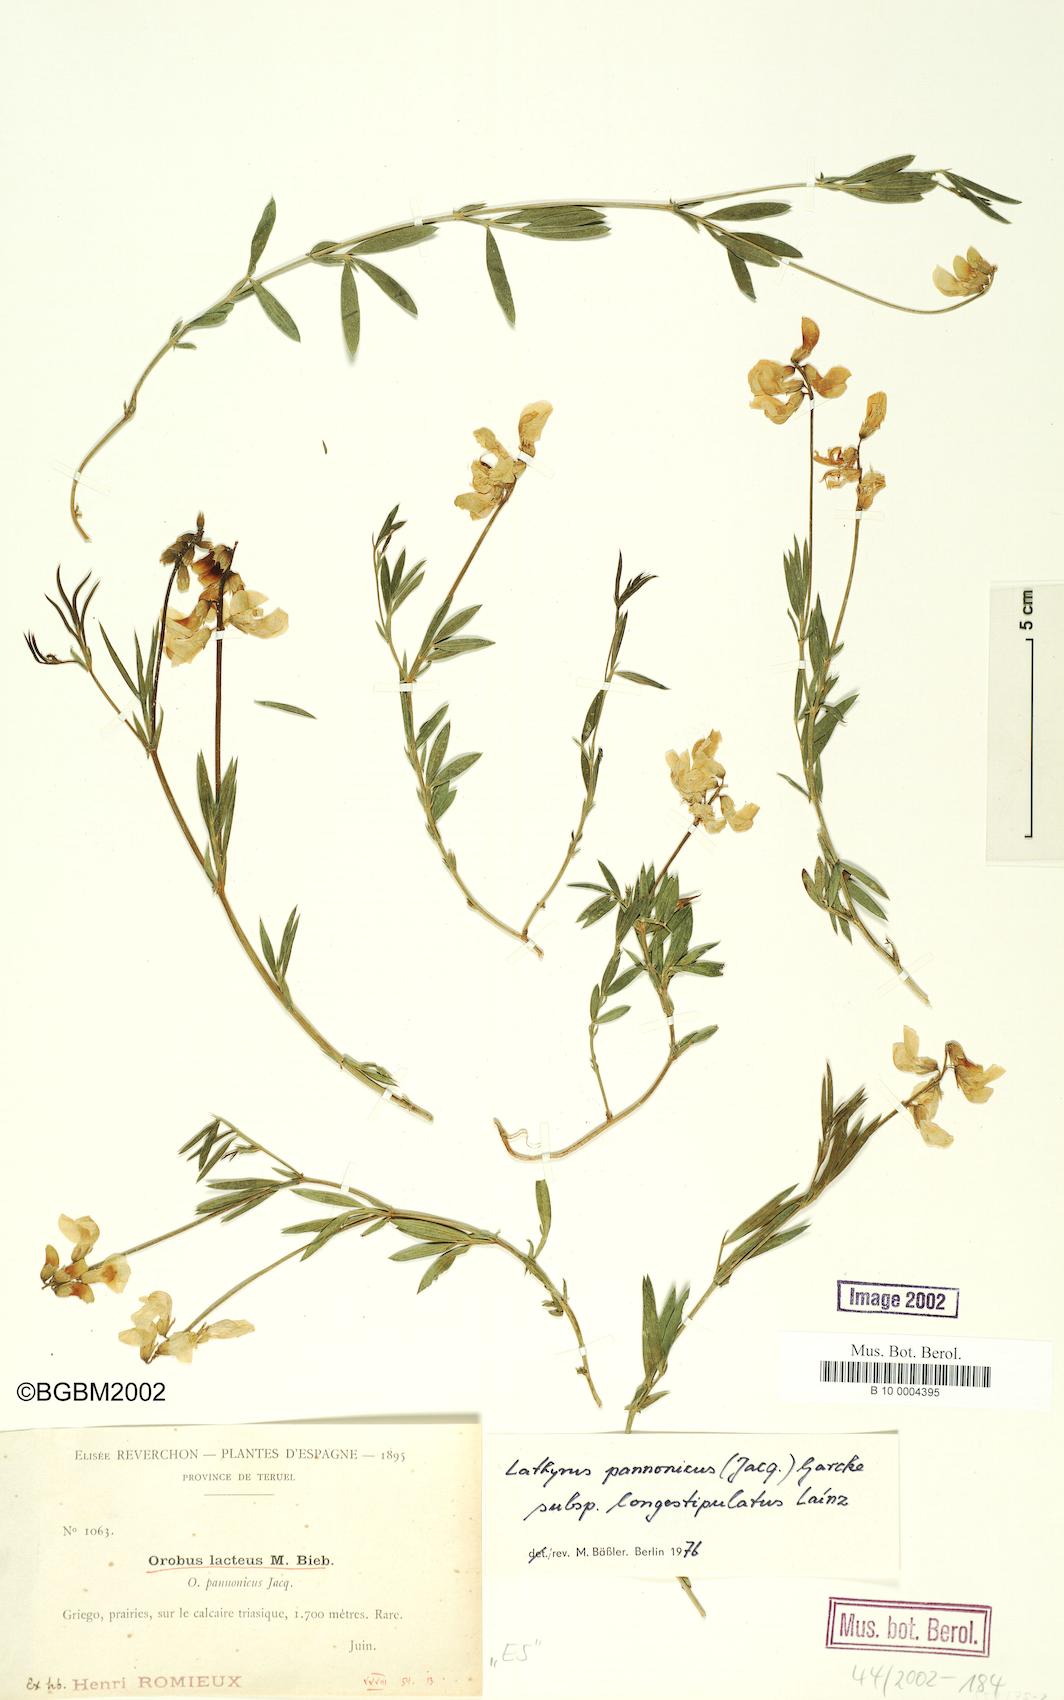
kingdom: Plantae
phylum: Tracheophyta
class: Magnoliopsida
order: Fabales
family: Fabaceae
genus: Lathyrus
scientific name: Lathyrus pannonicus
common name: Pea
